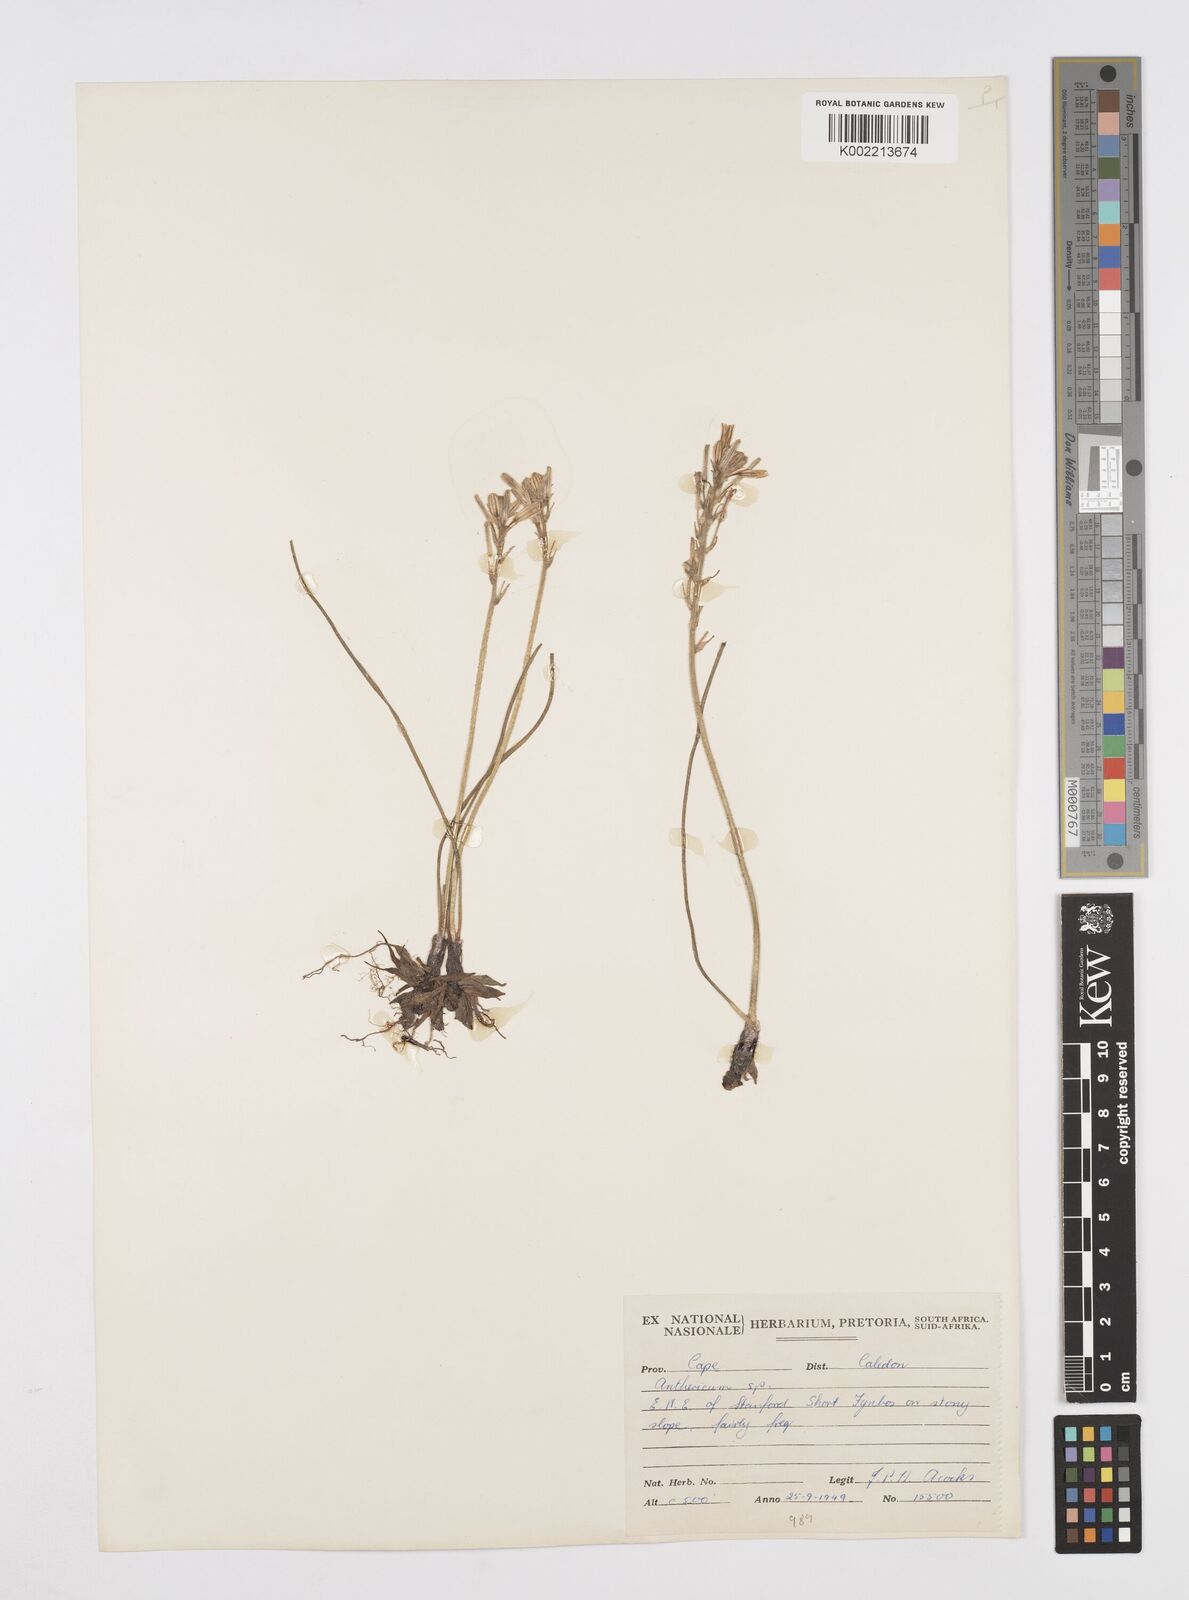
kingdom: Plantae
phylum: Tracheophyta
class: Liliopsida
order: Asparagales
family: Asphodelaceae
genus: Trachyandra
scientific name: Trachyandra hirsutiflora
